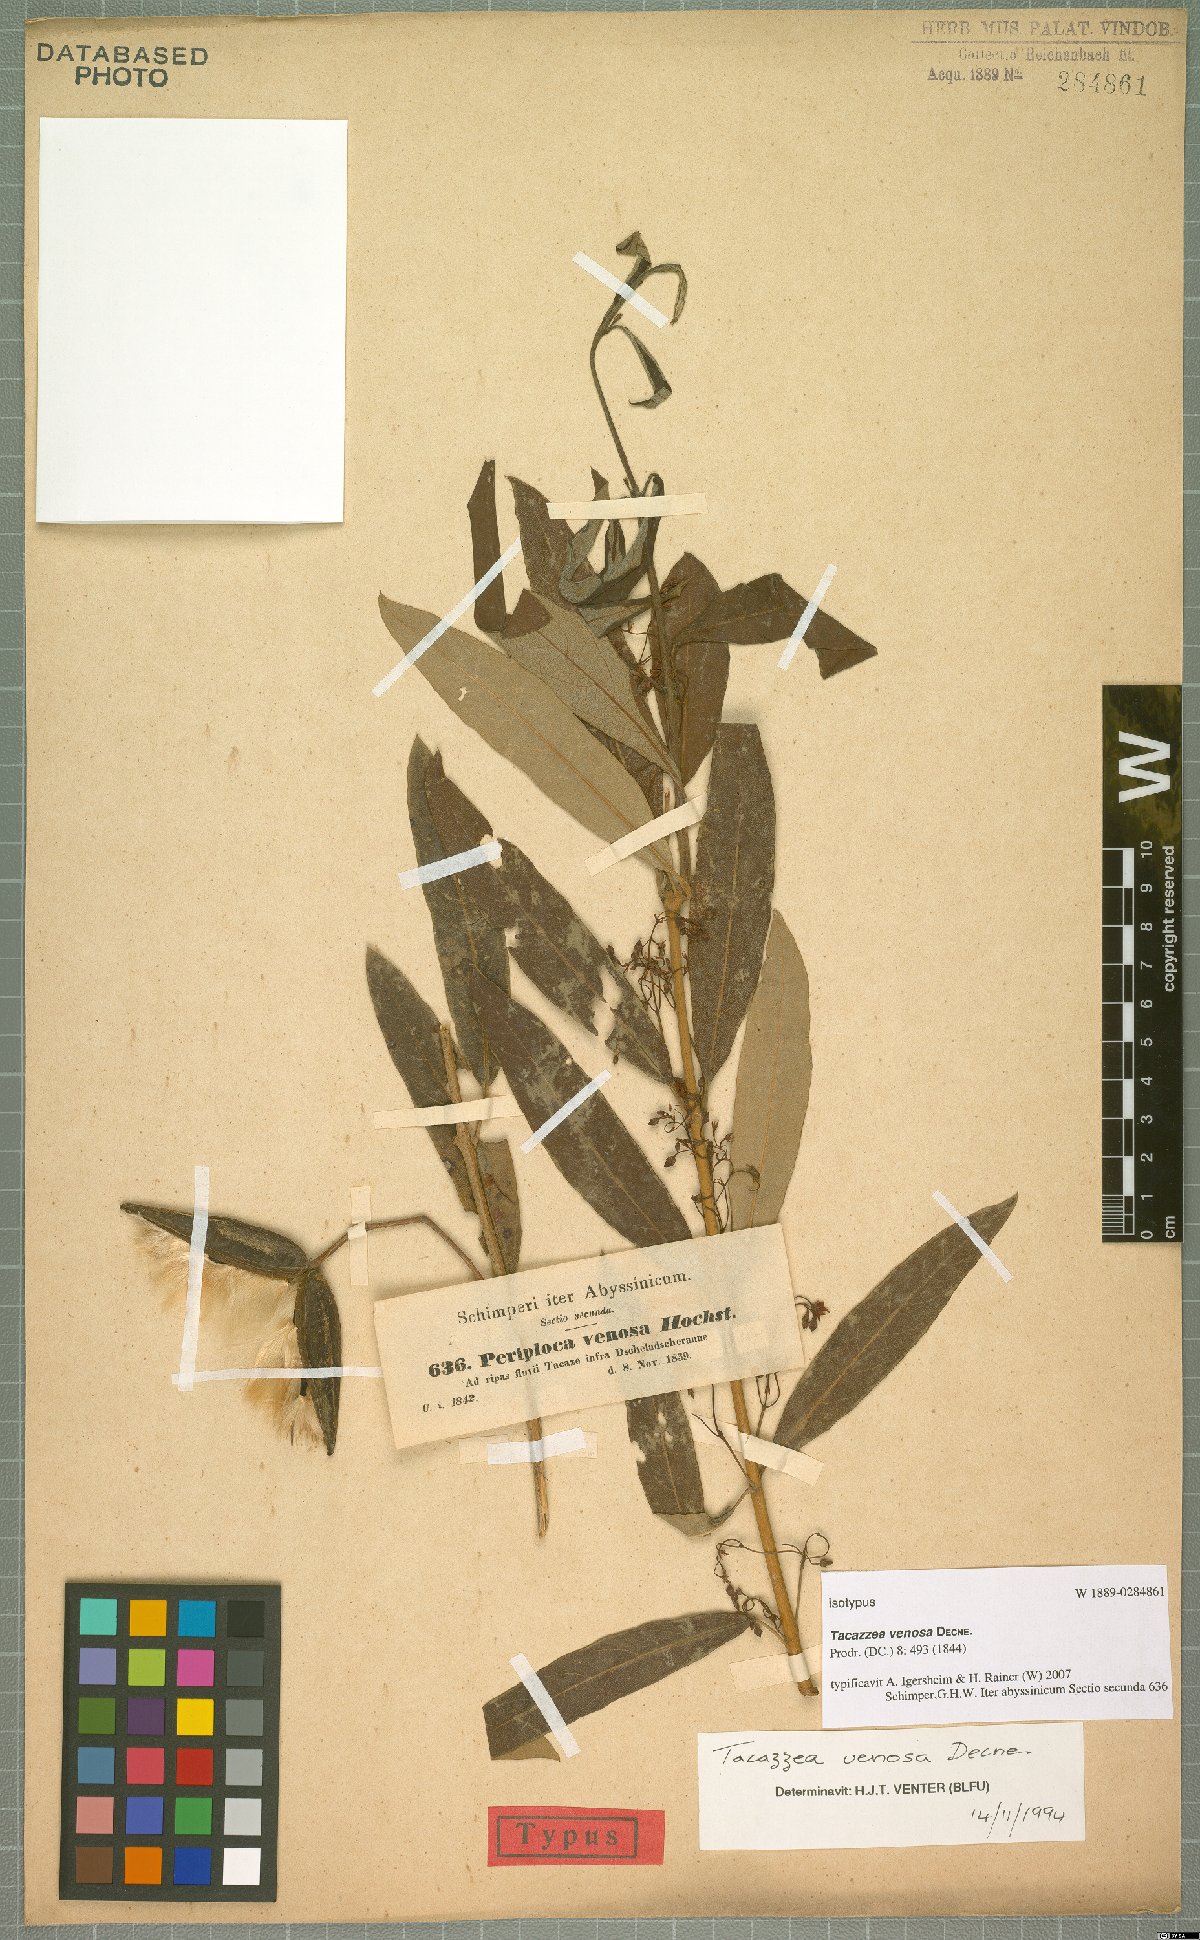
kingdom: Plantae
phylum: Tracheophyta
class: Magnoliopsida
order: Gentianales
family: Apocynaceae
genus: Tacazzea
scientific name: Tacazzea venosa
